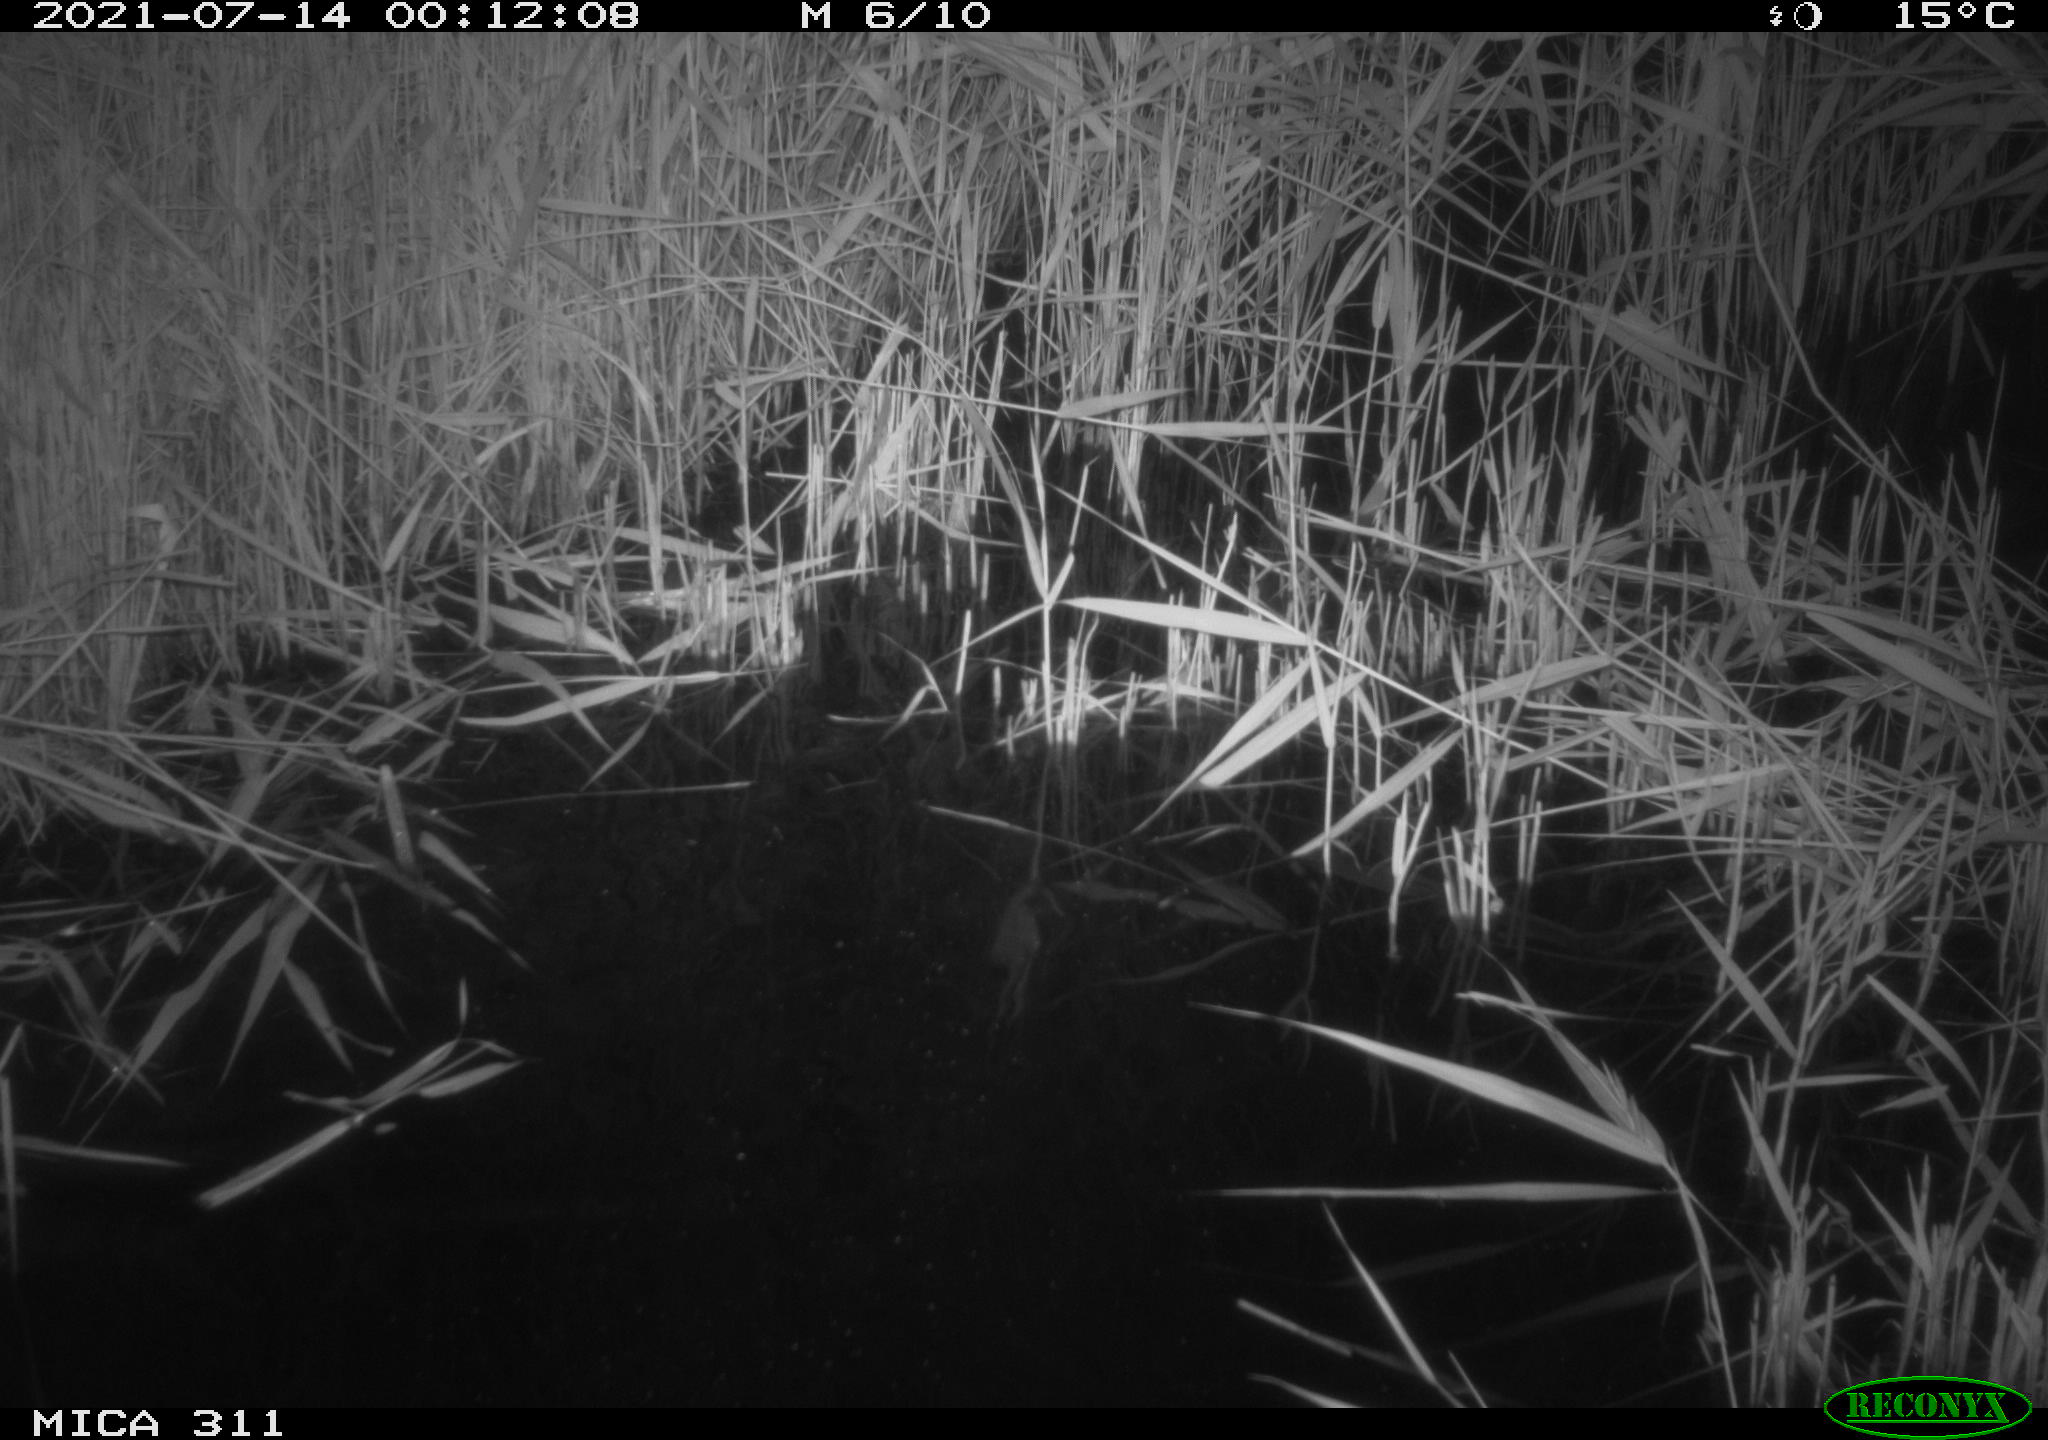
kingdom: Animalia
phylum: Chordata
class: Mammalia
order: Rodentia
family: Muridae
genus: Rattus
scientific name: Rattus norvegicus
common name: Brown rat
